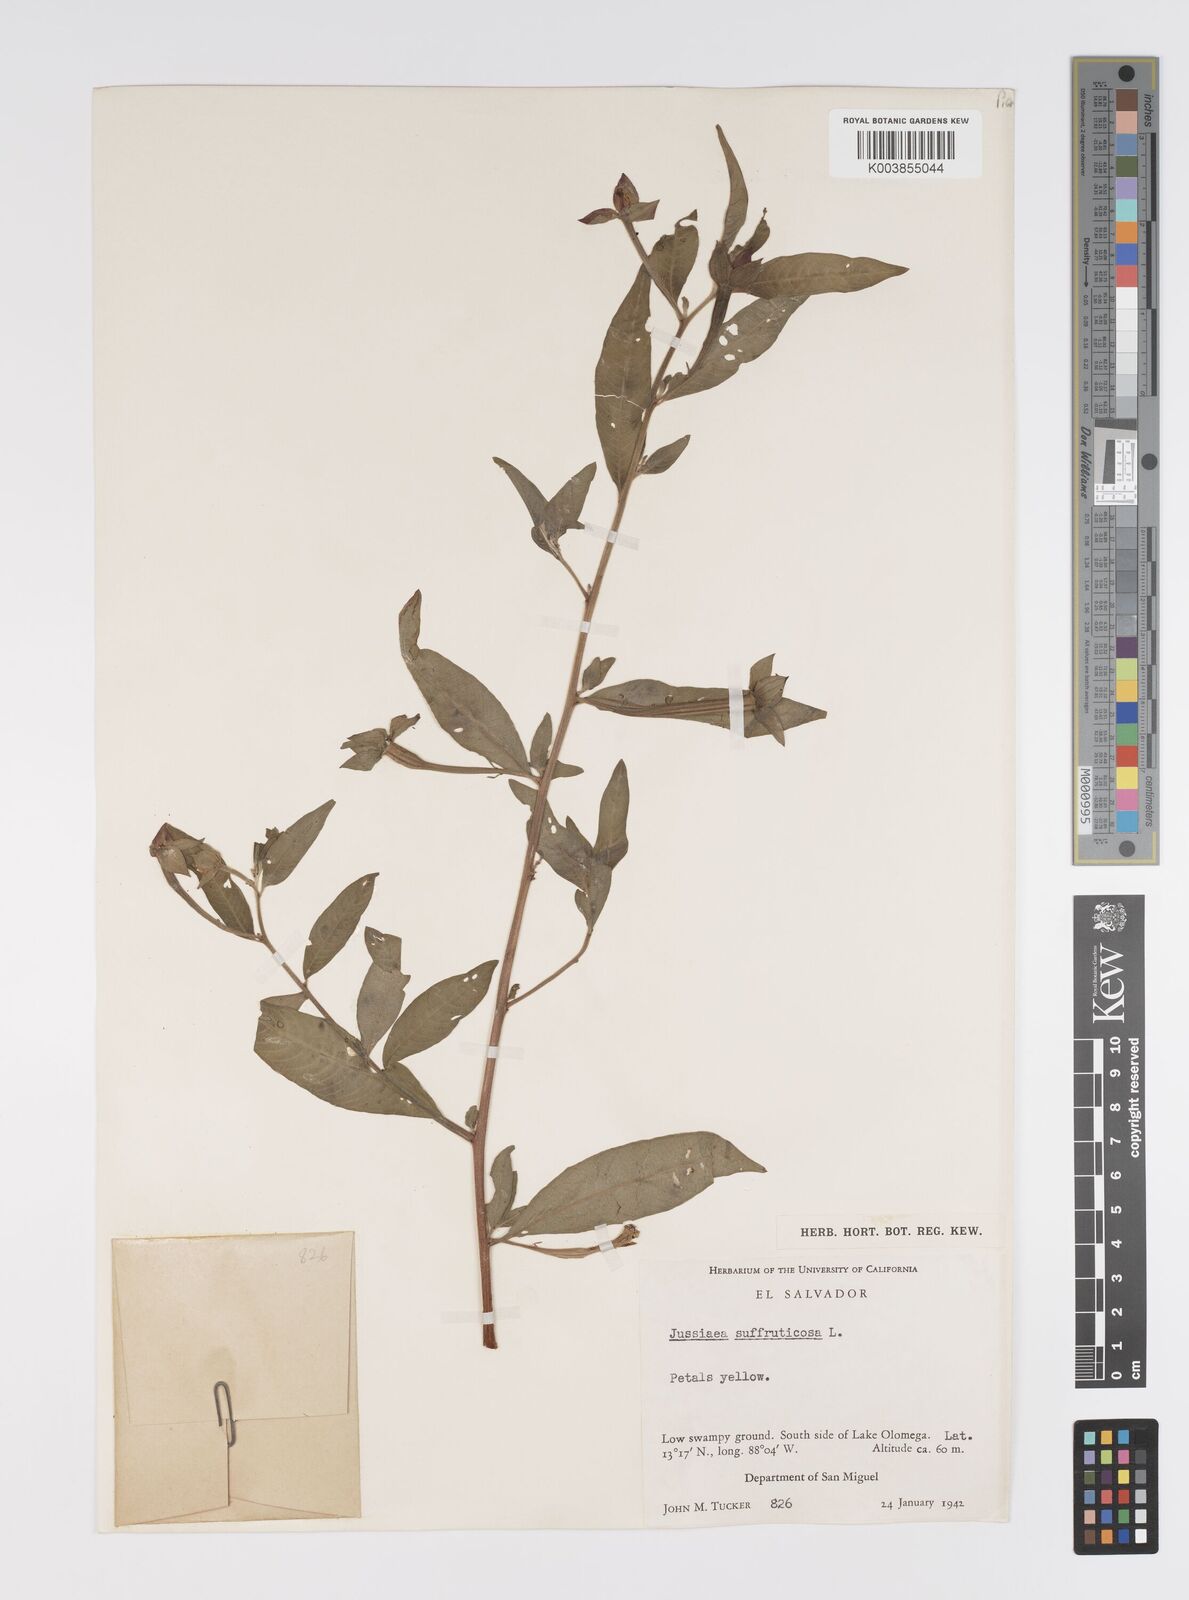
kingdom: Plantae
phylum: Tracheophyta
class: Magnoliopsida
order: Myrtales
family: Onagraceae
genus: Ludwigia
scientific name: Ludwigia octovalvis
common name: Water-primrose
